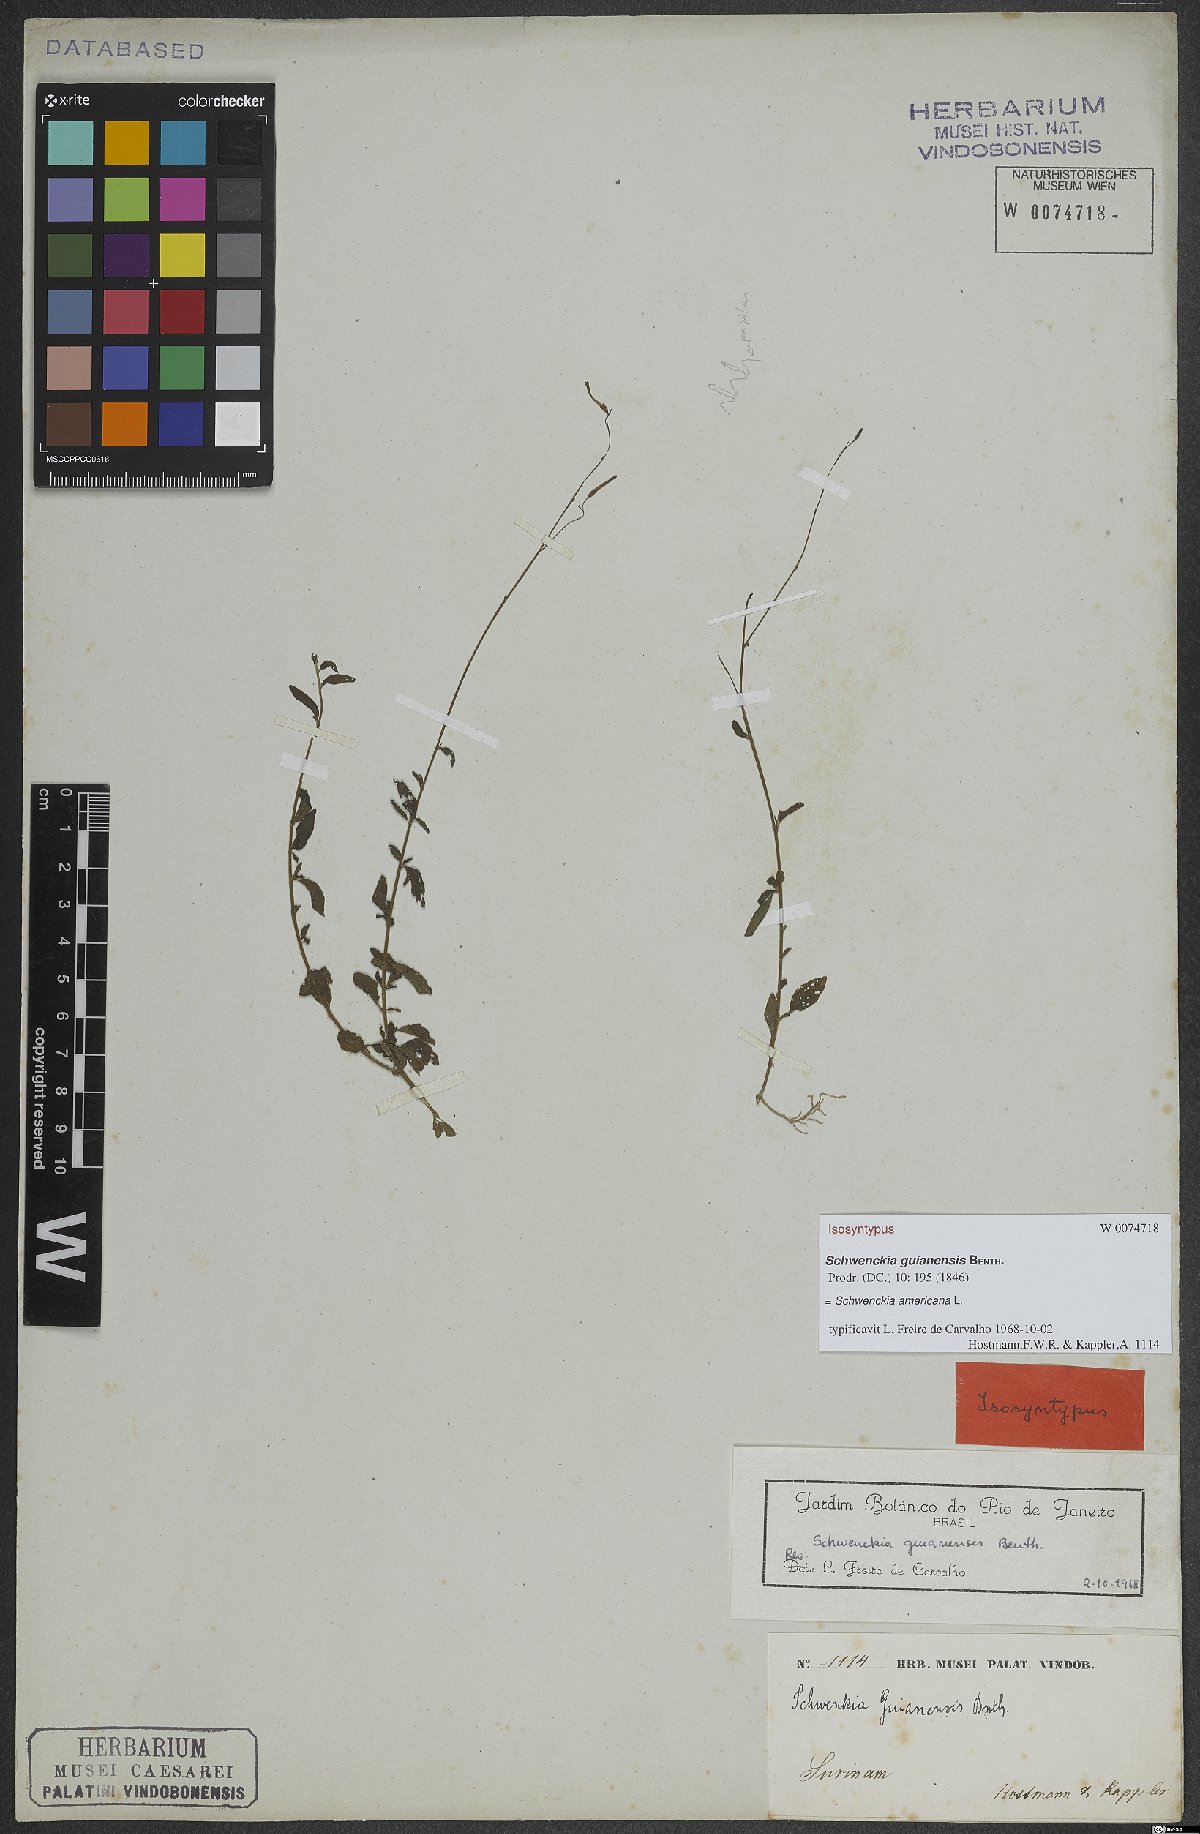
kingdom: Plantae
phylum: Tracheophyta
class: Magnoliopsida
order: Solanales
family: Solanaceae
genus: Schwenckia
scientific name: Schwenckia americana
